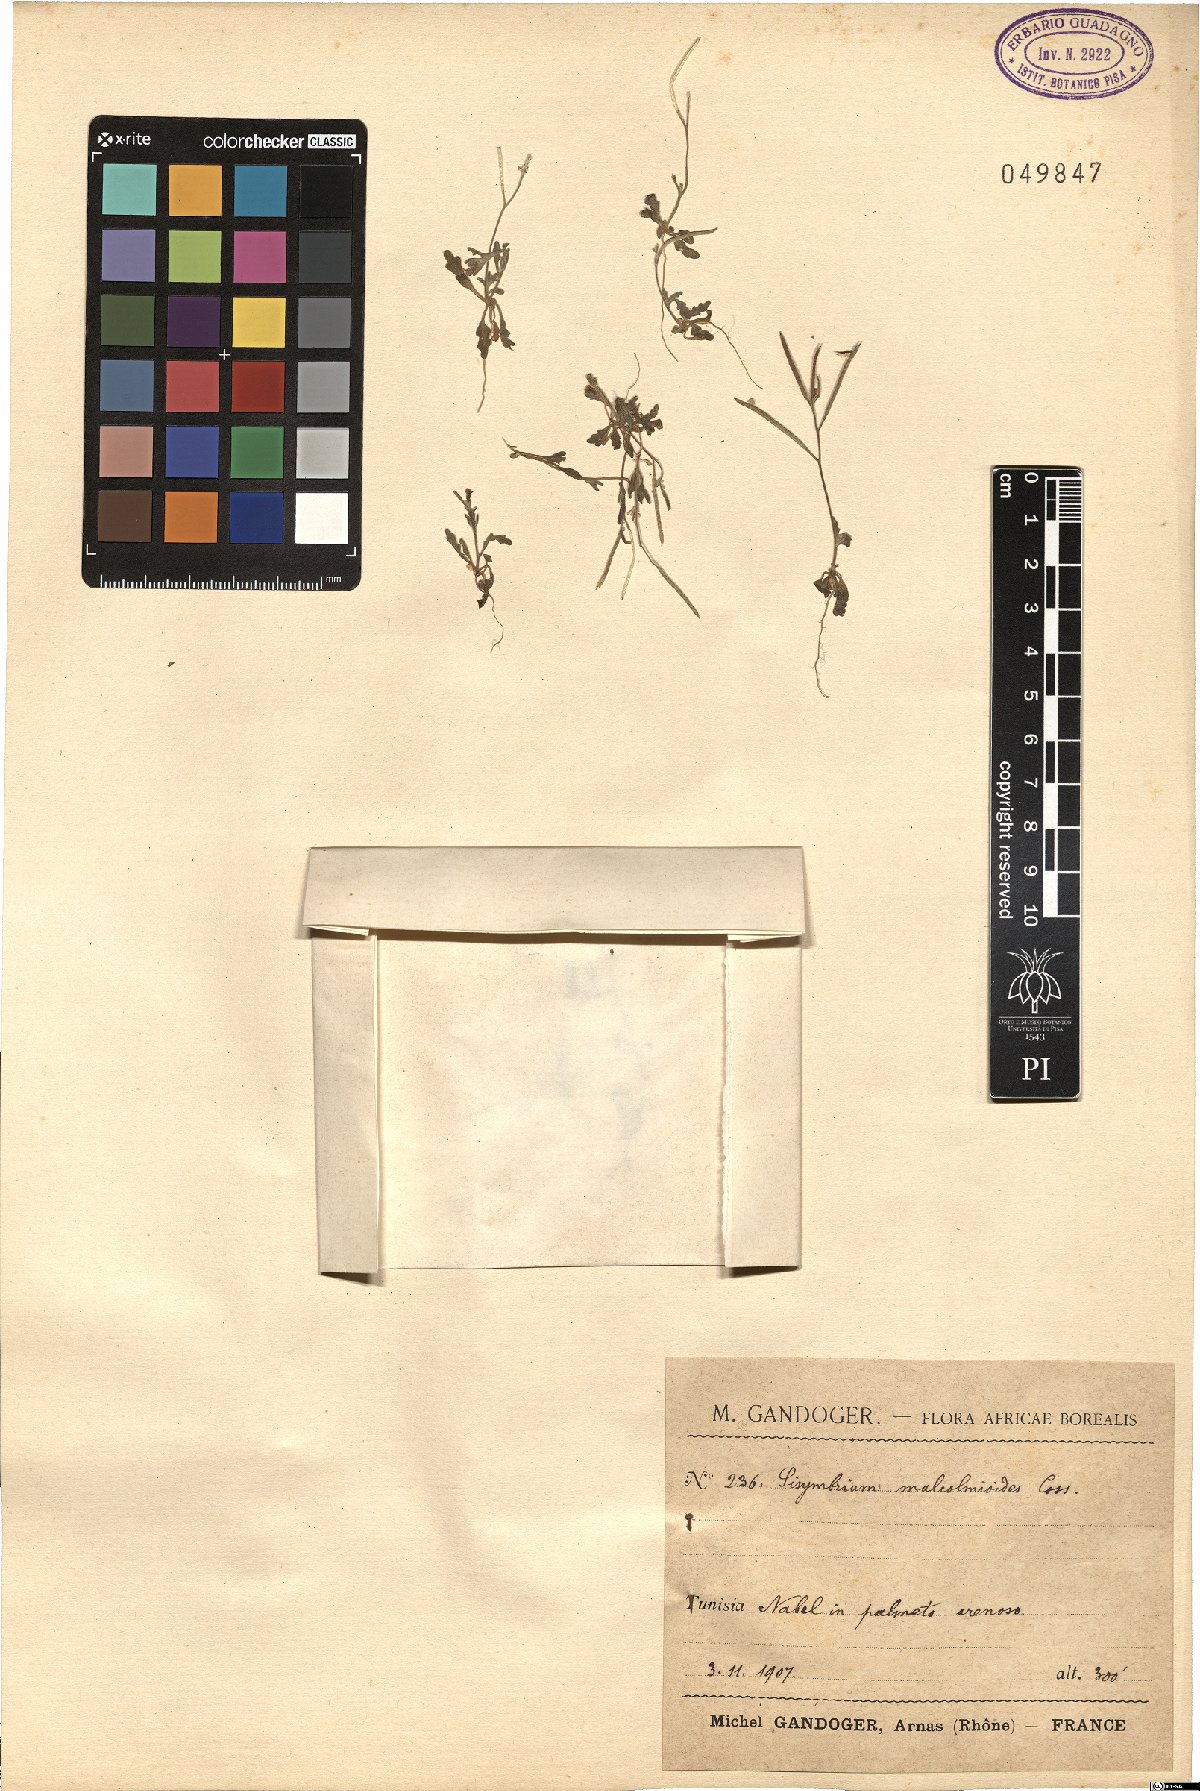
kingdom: Plantae
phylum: Tracheophyta
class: Magnoliopsida
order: Brassicales
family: Brassicaceae
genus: Maresia
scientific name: Maresia malcolmioides
